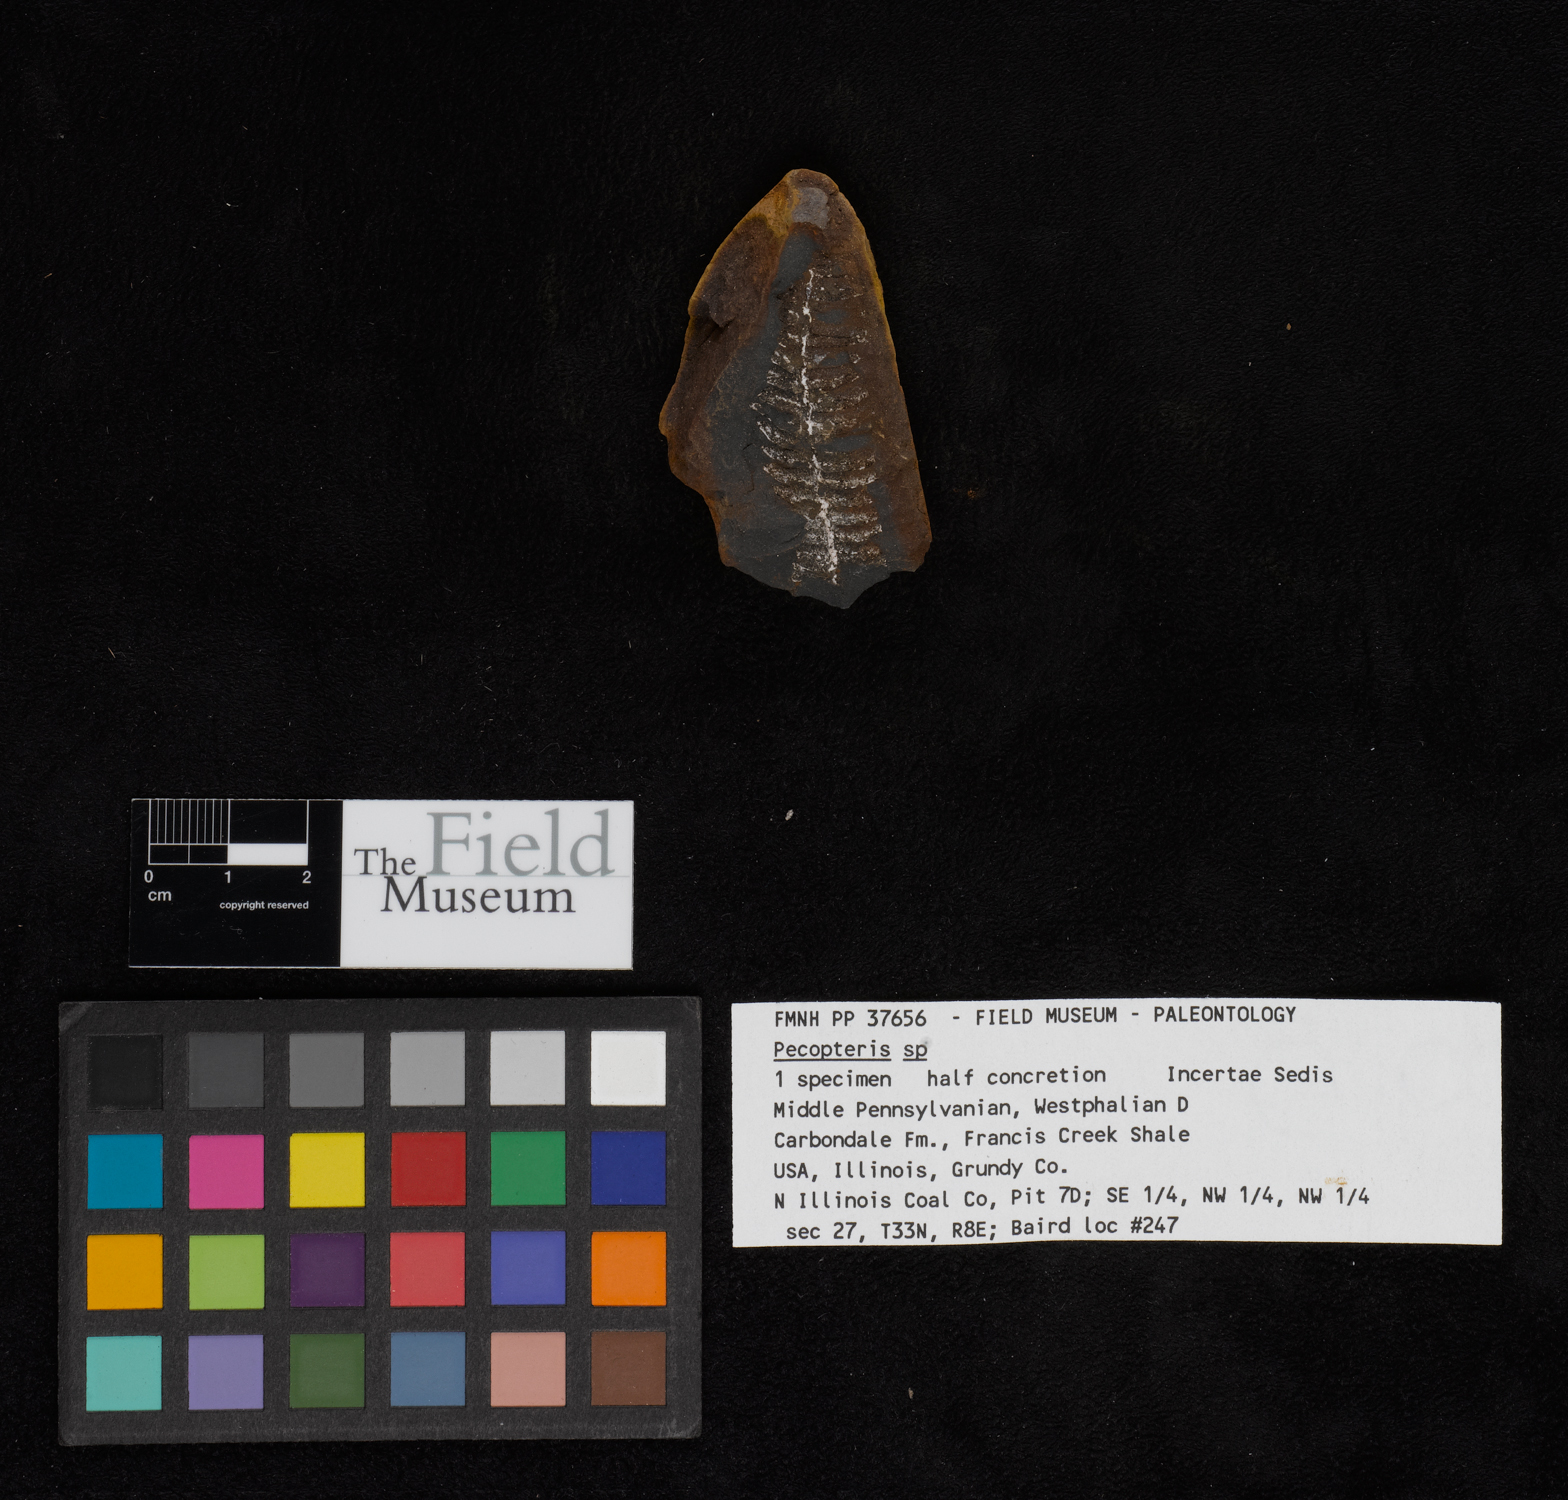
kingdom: Plantae
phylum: Tracheophyta
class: Polypodiopsida
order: Marattiales
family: Asterothecaceae
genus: Pecopteris
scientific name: Pecopteris
